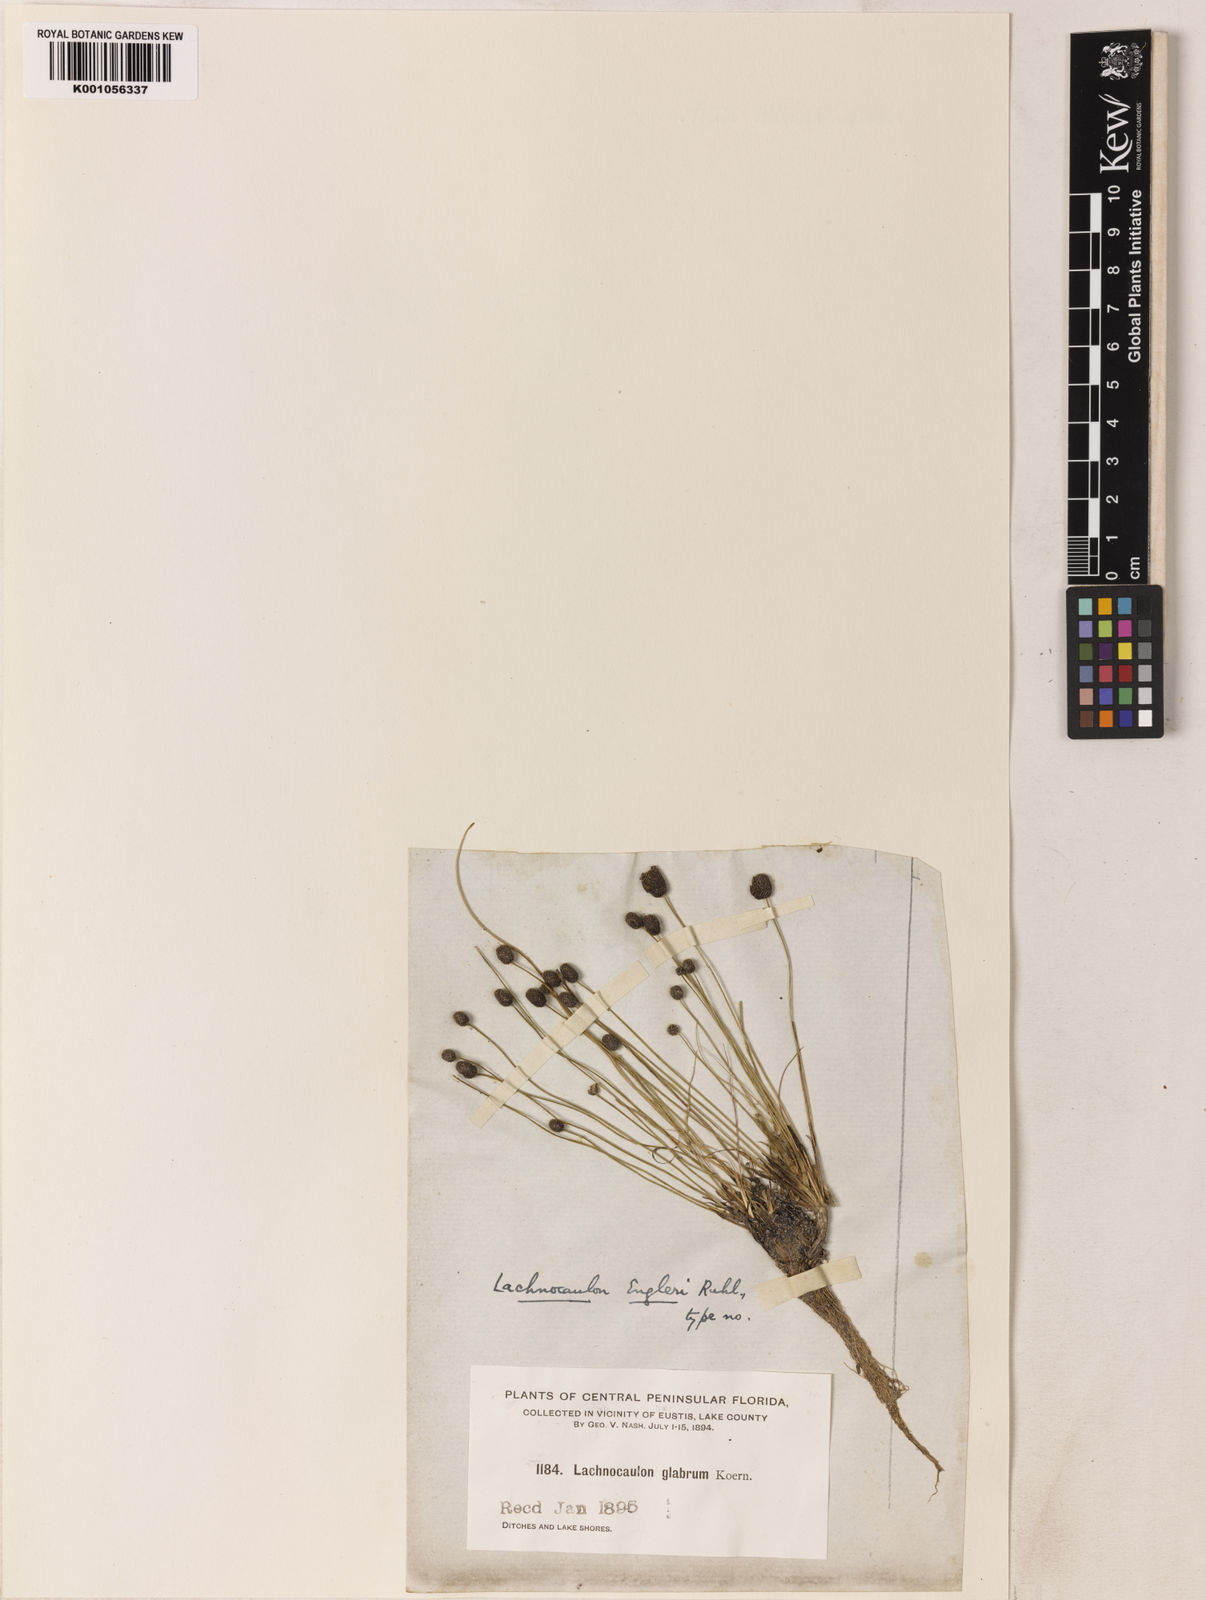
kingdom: Plantae
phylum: Tracheophyta
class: Liliopsida
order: Poales
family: Eriocaulaceae
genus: Paepalanthus
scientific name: Paepalanthus engleri
